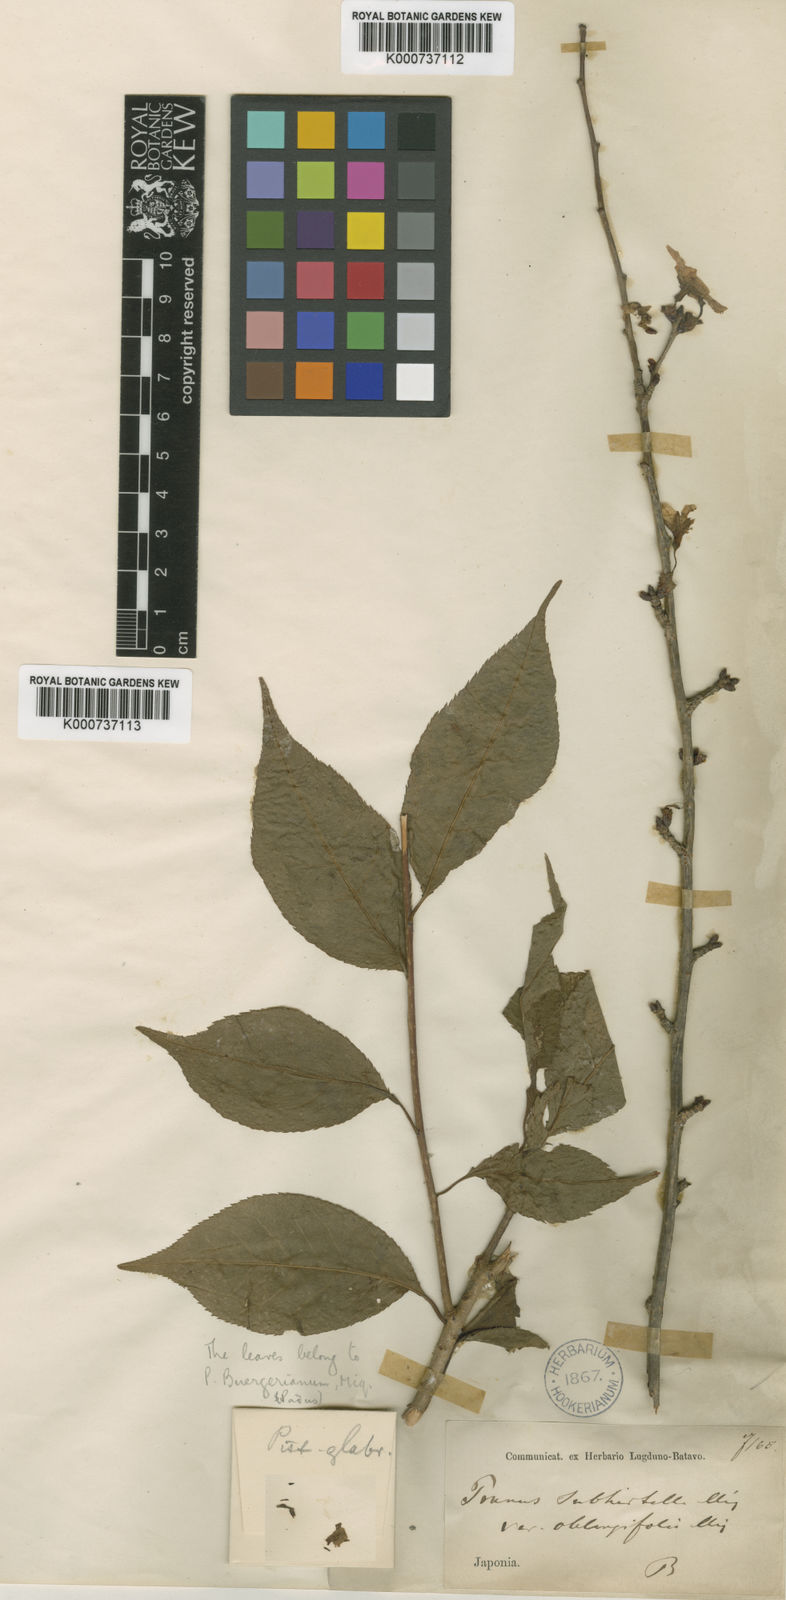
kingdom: Plantae
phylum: Tracheophyta
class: Magnoliopsida
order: Rosales
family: Rosaceae
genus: Prunus
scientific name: Prunus subhirtella
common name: Winter-flowering cherry
